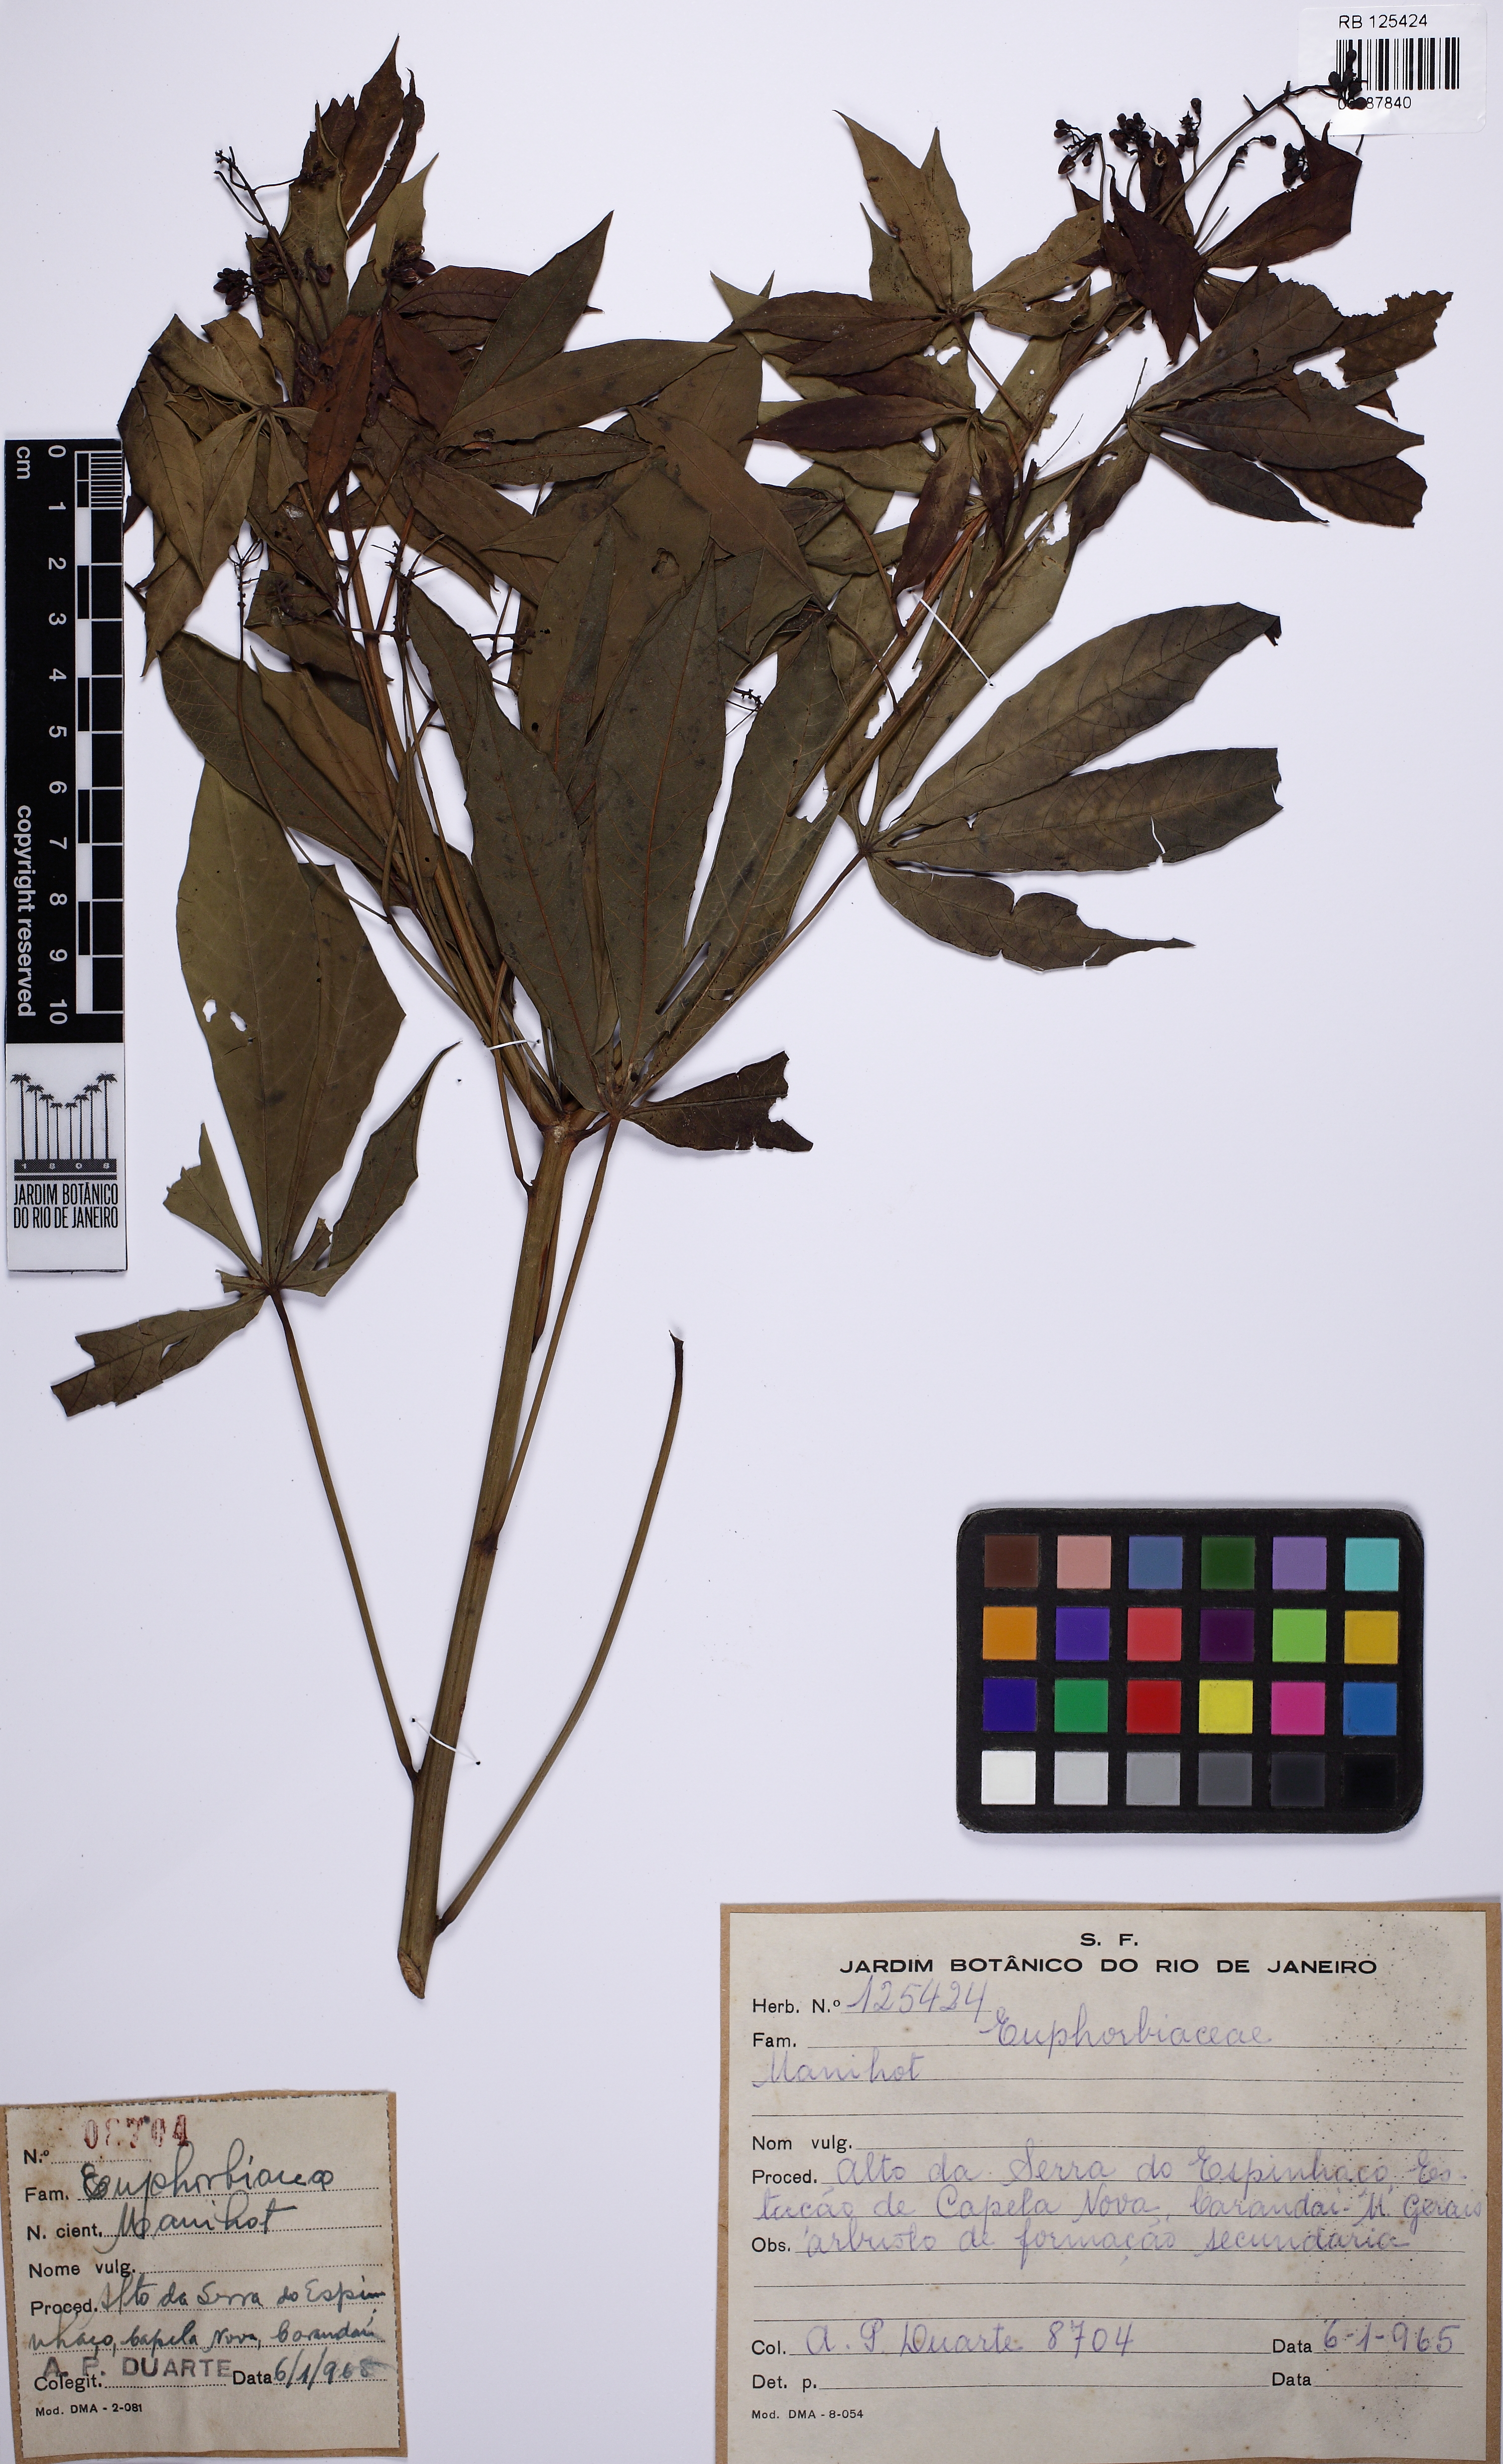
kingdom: Plantae
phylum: Tracheophyta
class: Magnoliopsida
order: Malpighiales
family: Euphorbiaceae
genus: Manihot
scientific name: Manihot pilosa
